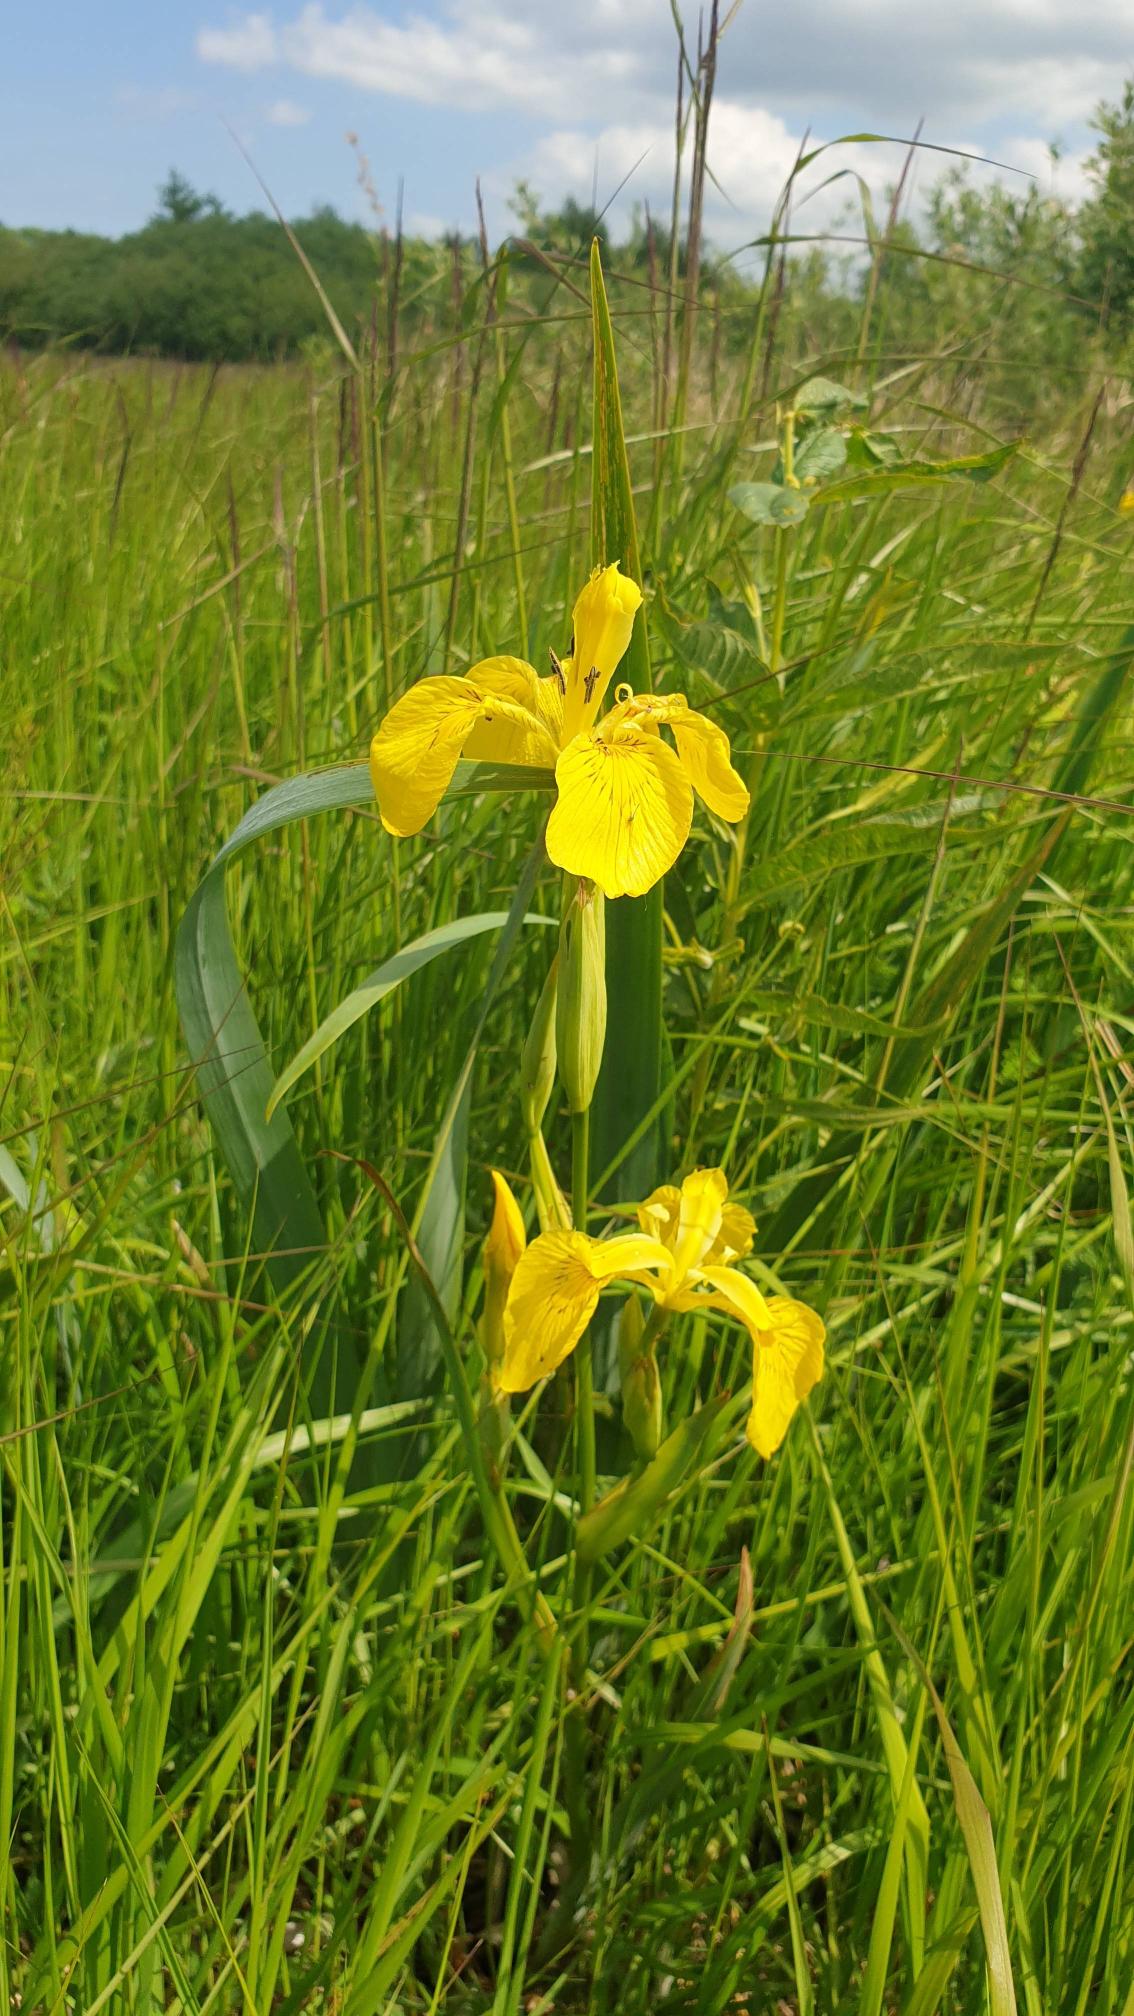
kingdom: Plantae
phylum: Tracheophyta
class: Liliopsida
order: Asparagales
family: Iridaceae
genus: Iris
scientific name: Iris pseudacorus
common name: Gul iris
